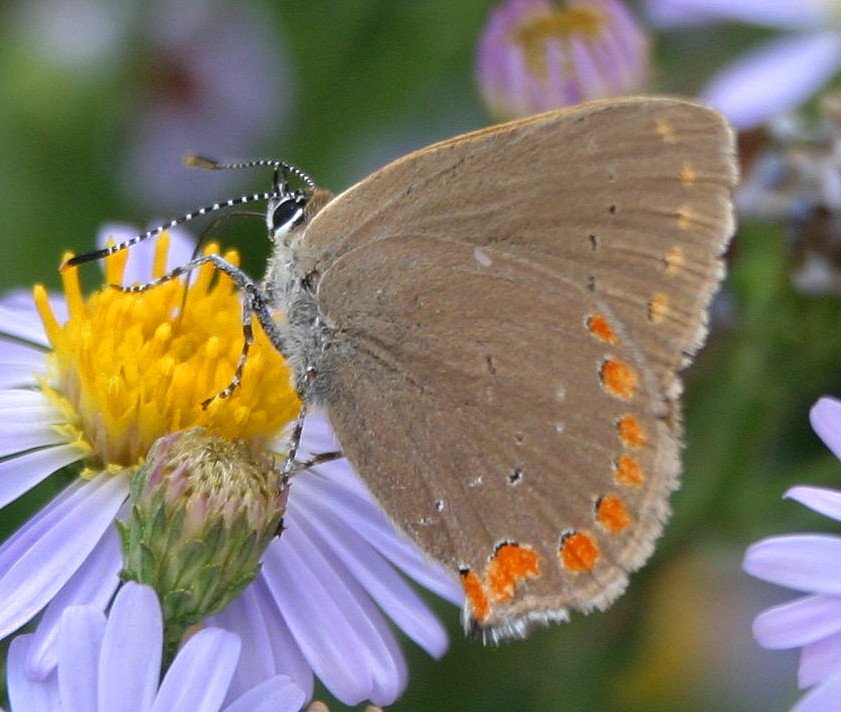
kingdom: Animalia
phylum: Arthropoda
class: Insecta
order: Lepidoptera
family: Lycaenidae
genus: Harkenclenus
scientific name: Harkenclenus titus
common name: Coral Hairstreak
